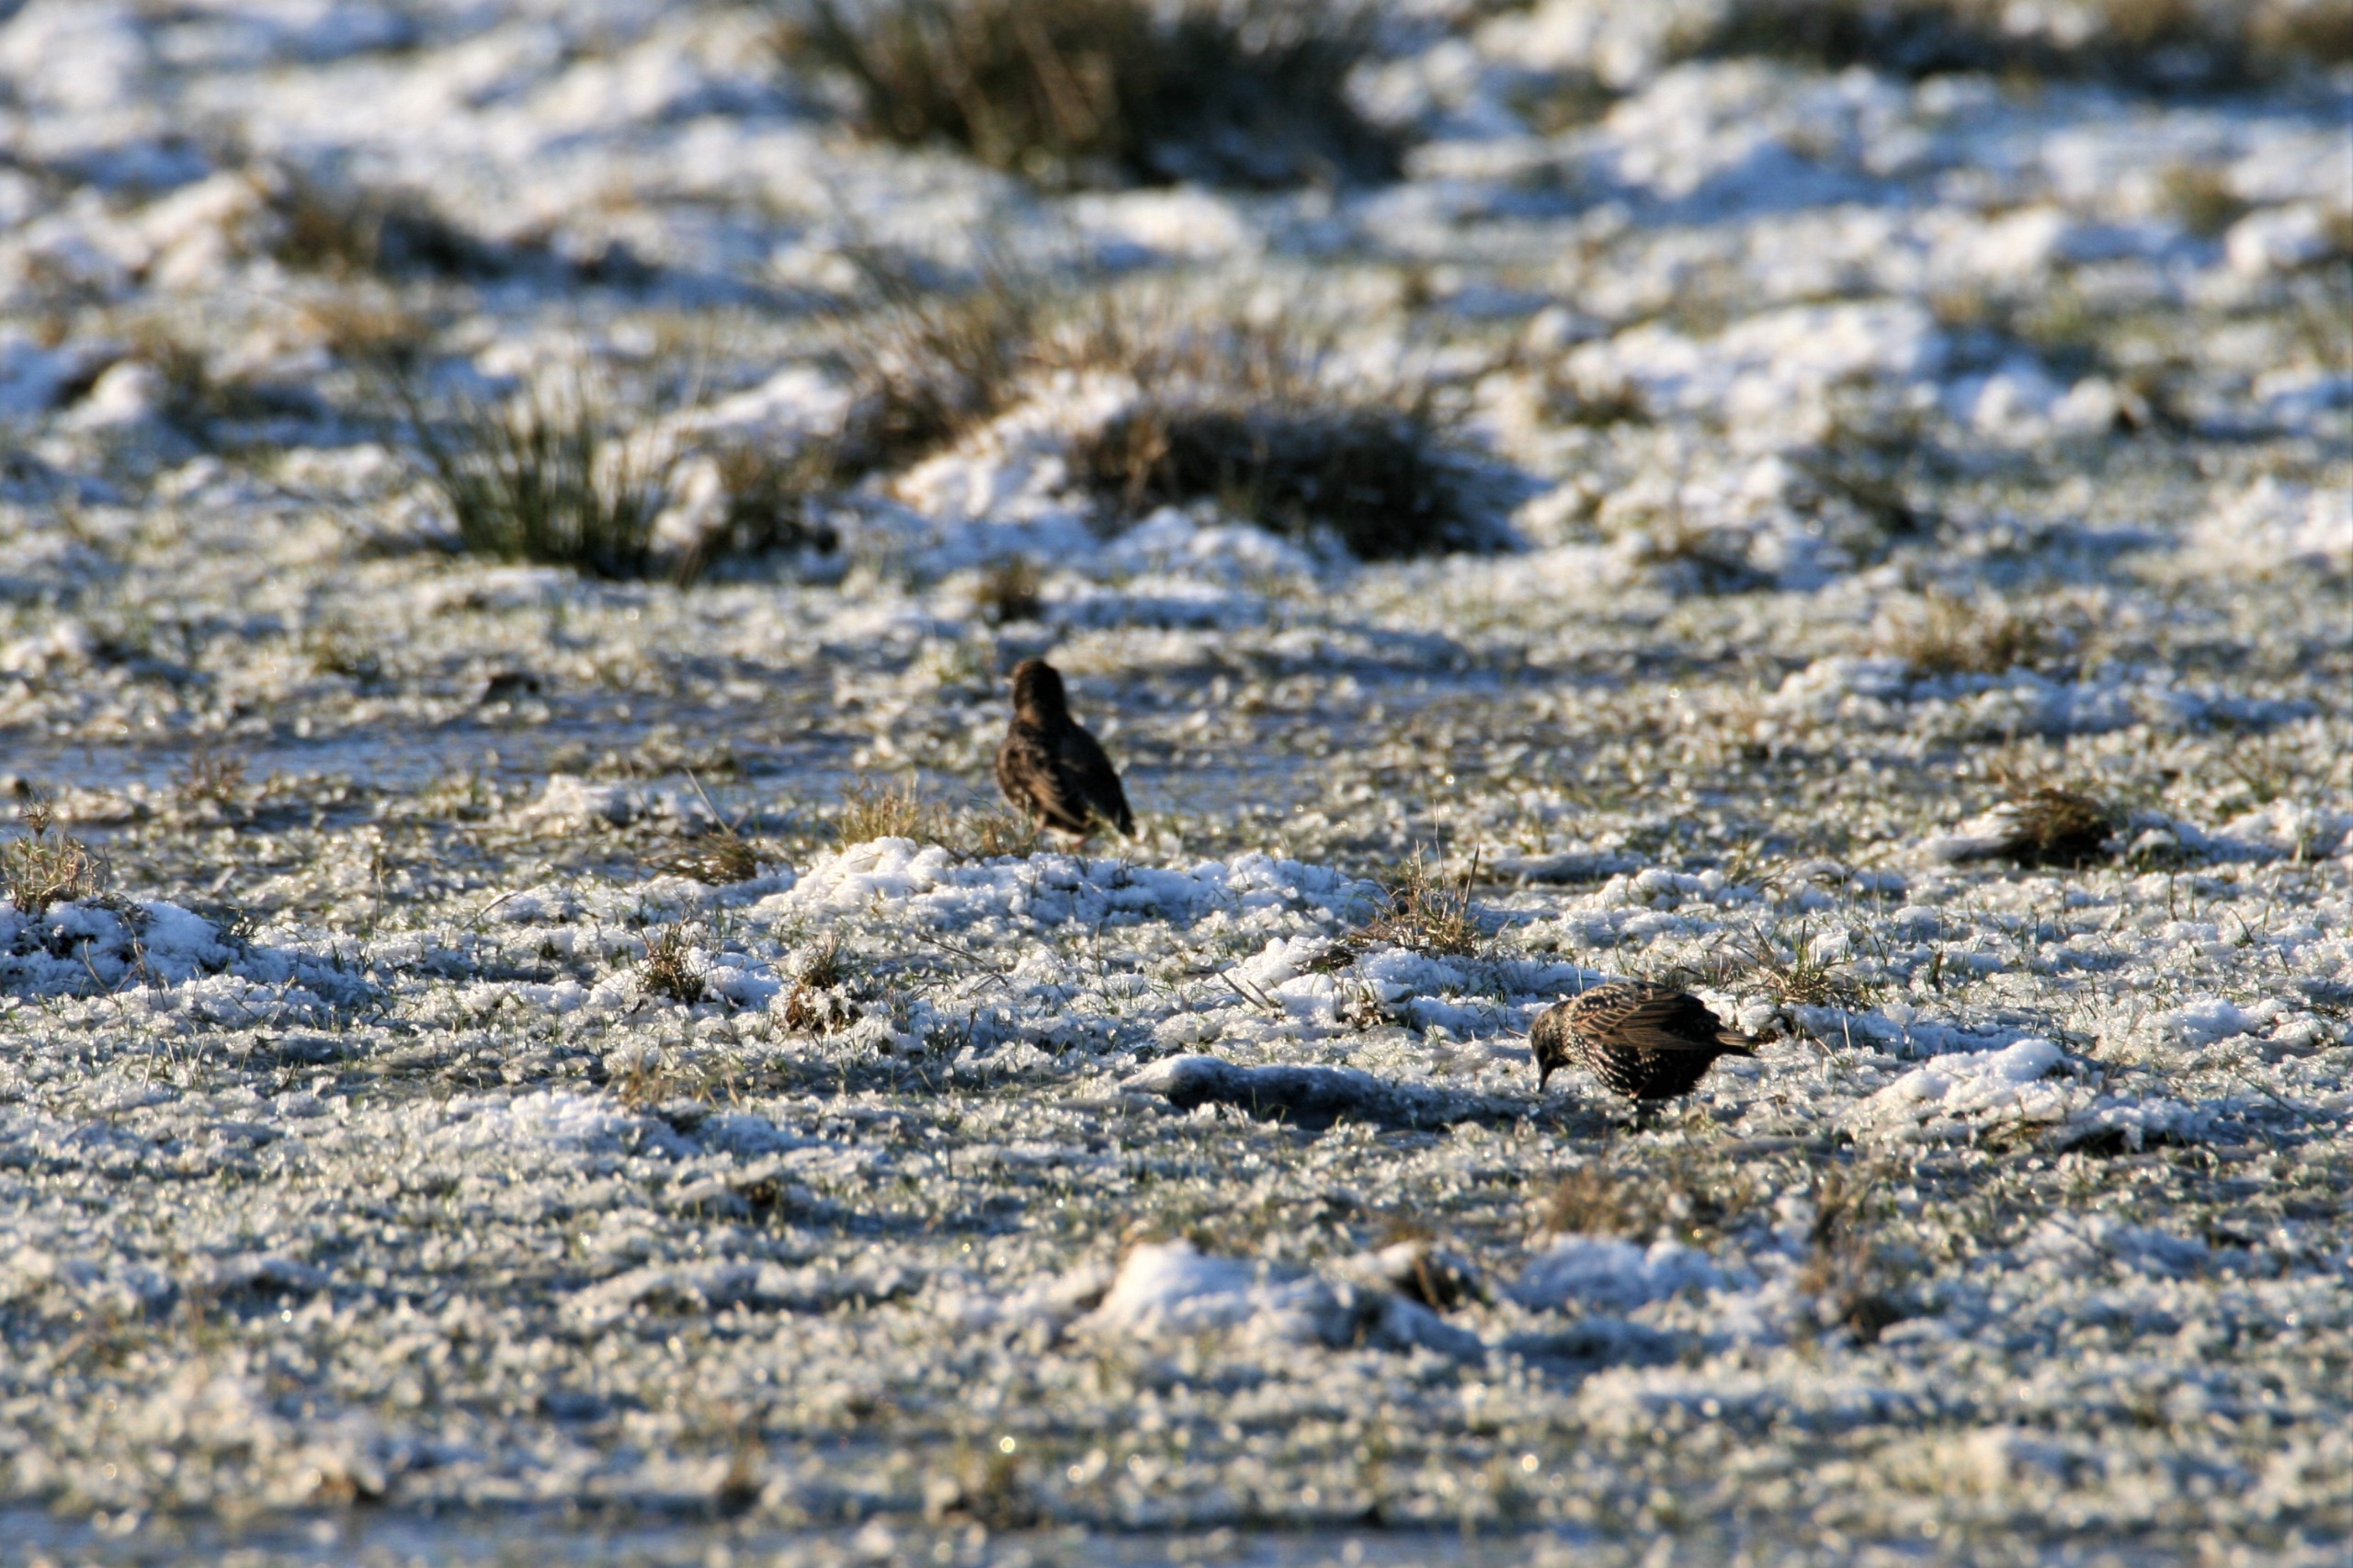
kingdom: Animalia
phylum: Chordata
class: Aves
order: Passeriformes
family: Sturnidae
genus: Sturnus
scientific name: Sturnus vulgaris
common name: Stær
